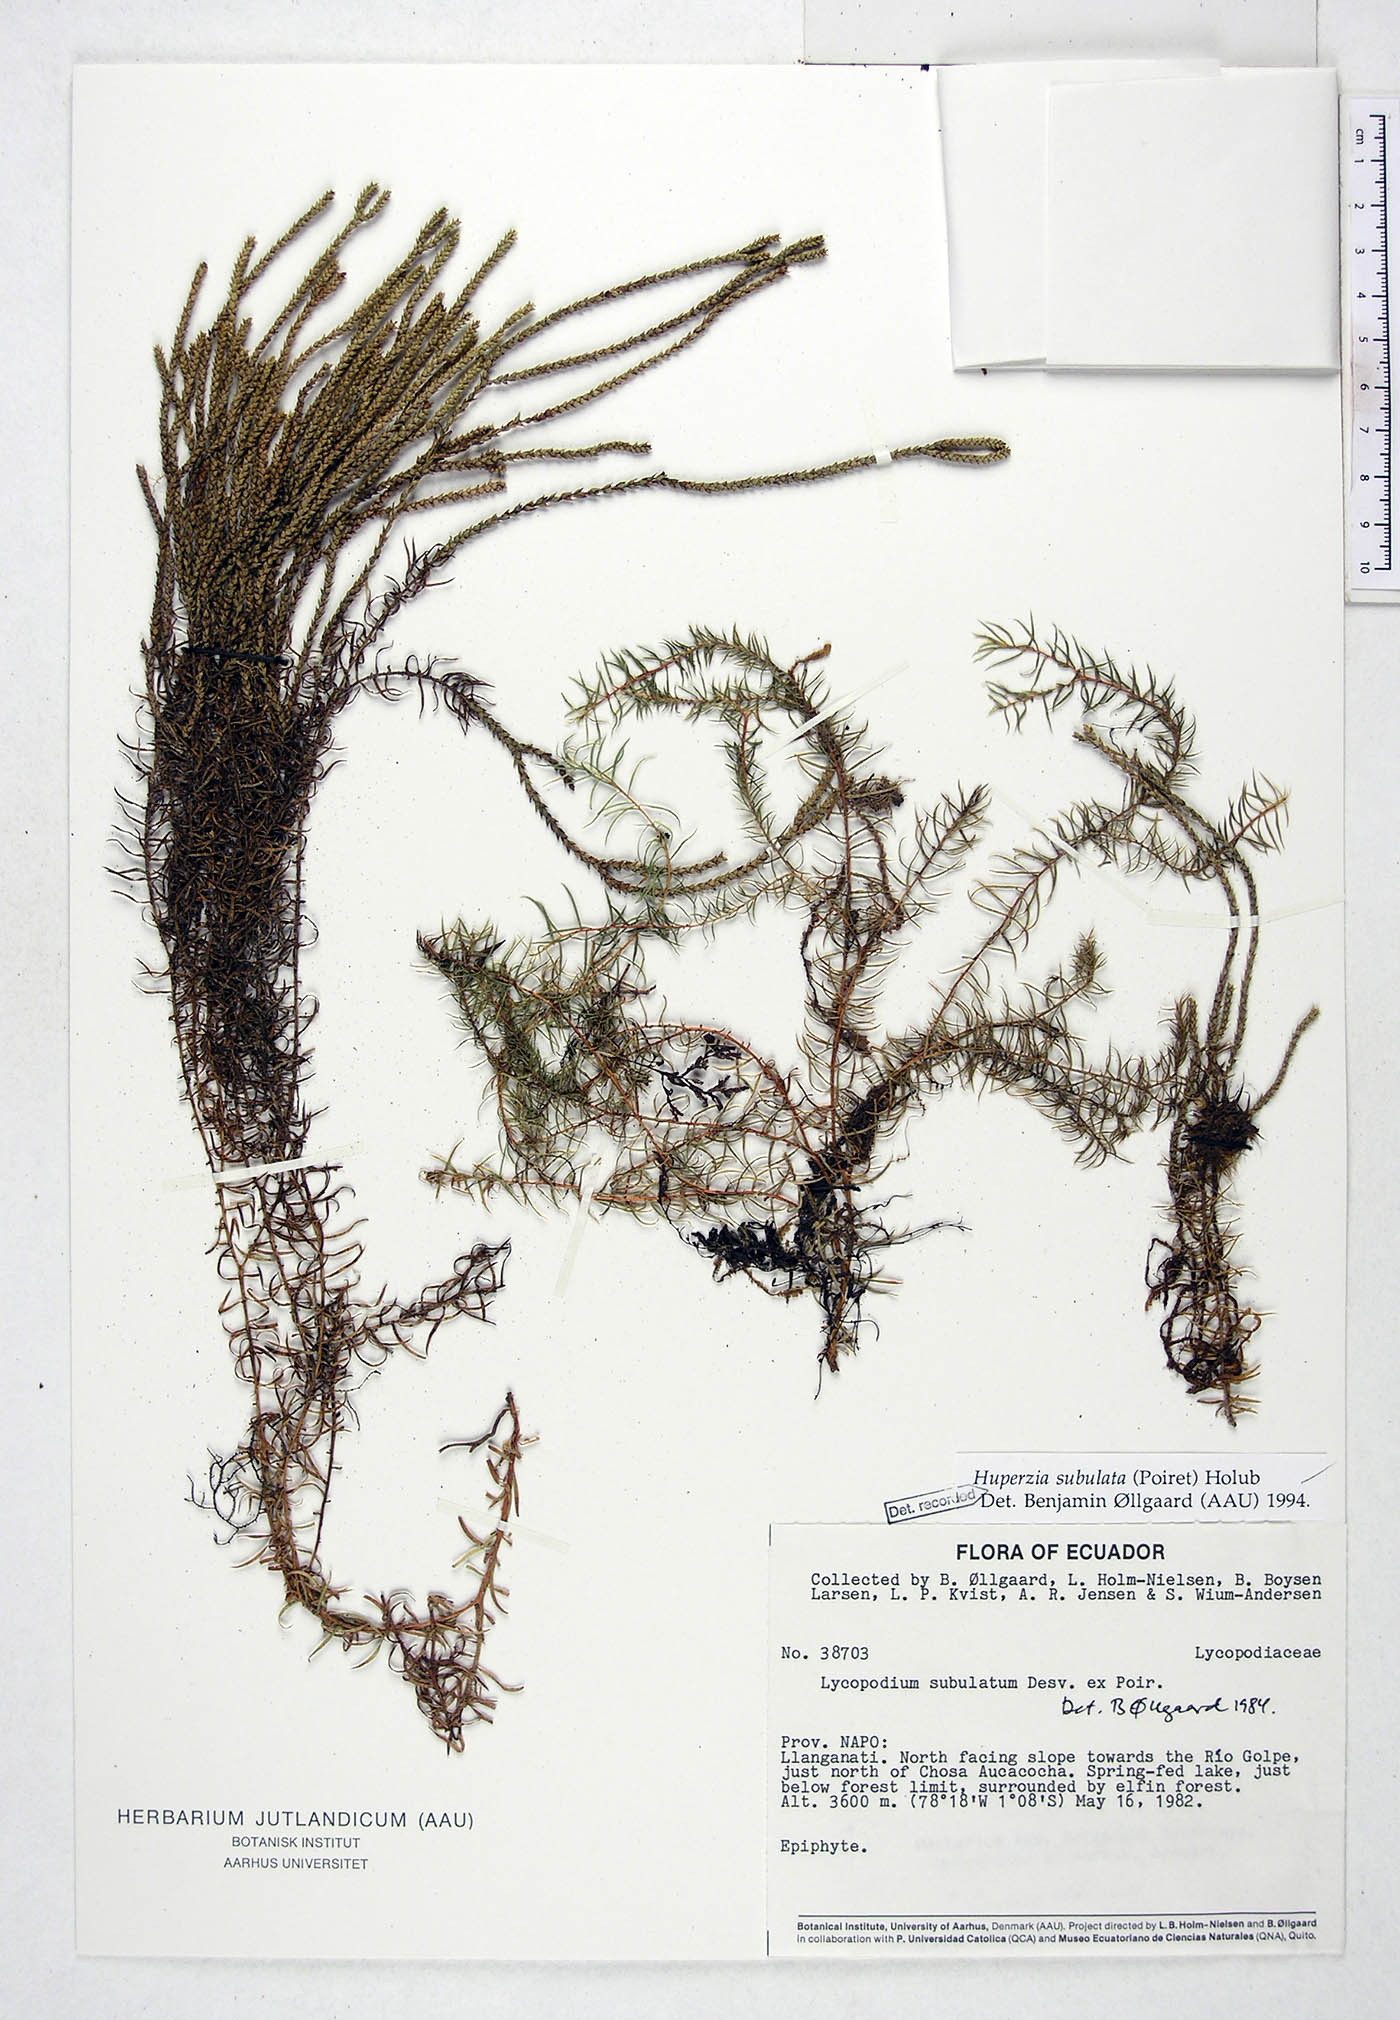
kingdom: Plantae
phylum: Tracheophyta
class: Lycopodiopsida
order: Lycopodiales
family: Lycopodiaceae
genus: Phlegmariurus
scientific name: Phlegmariurus subulatus
